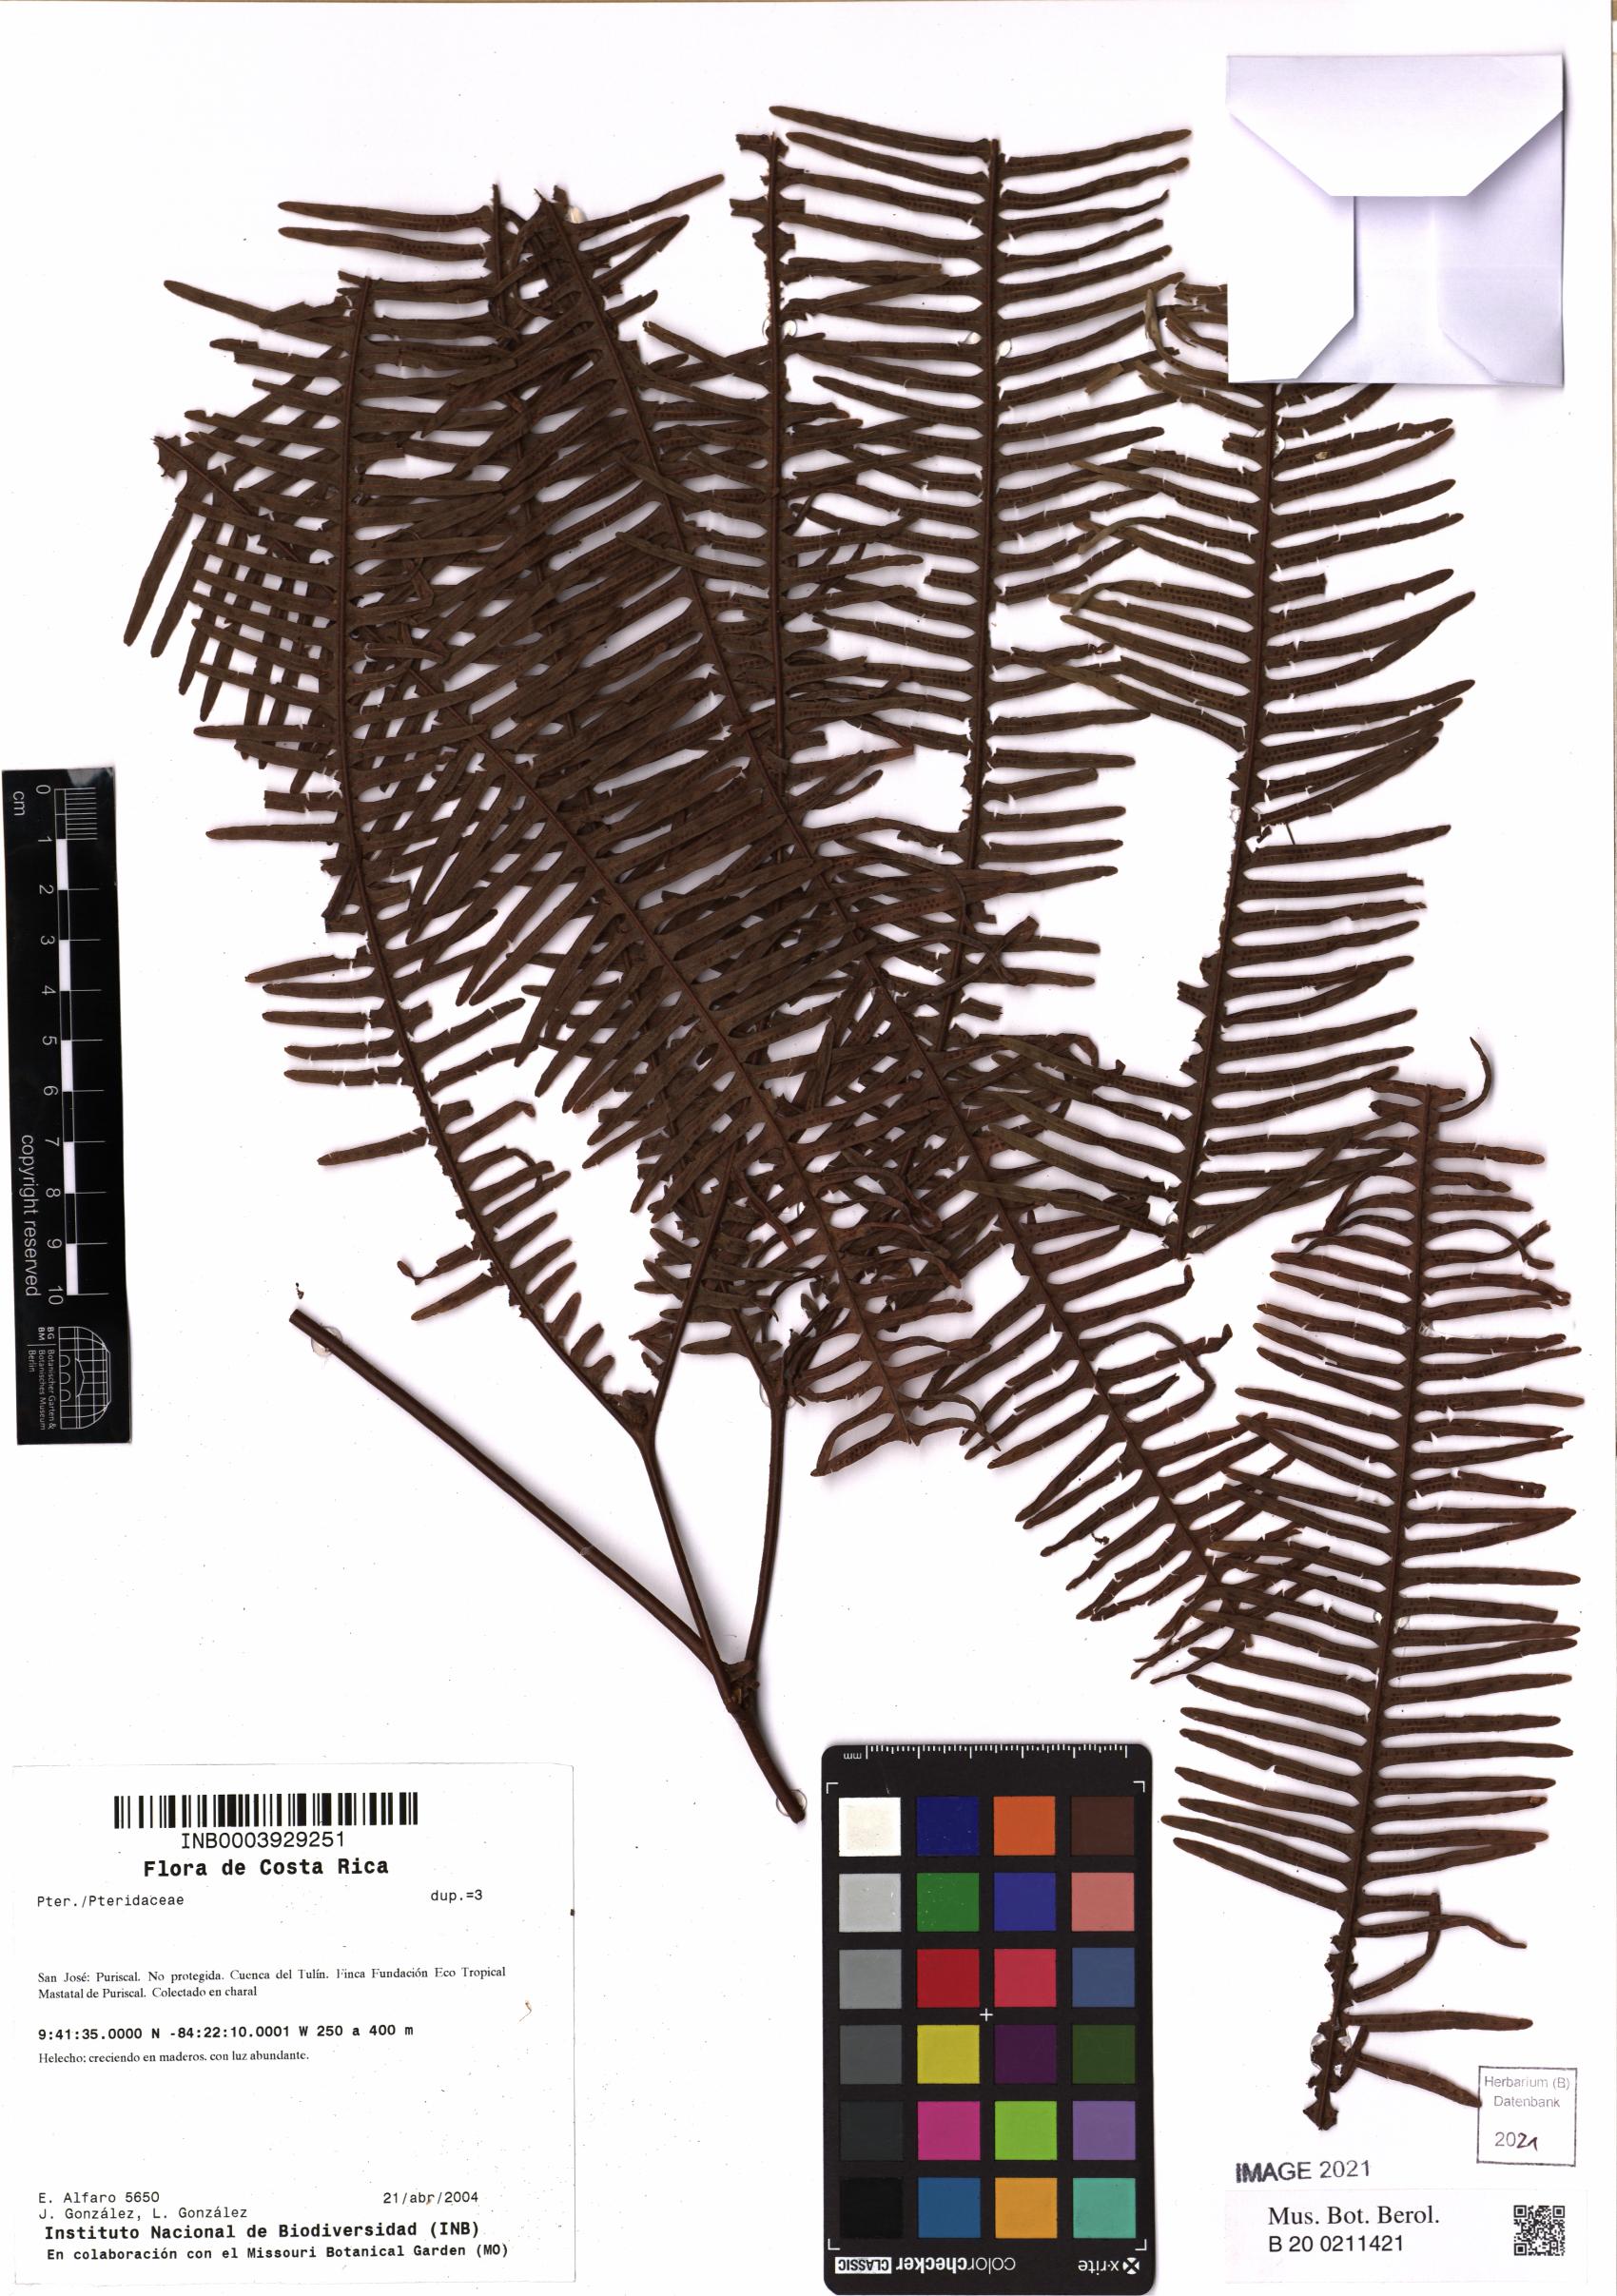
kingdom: Plantae
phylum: Tracheophyta
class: Polypodiopsida
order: Gleicheniales
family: Gleicheniaceae
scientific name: Gleicheniaceae
